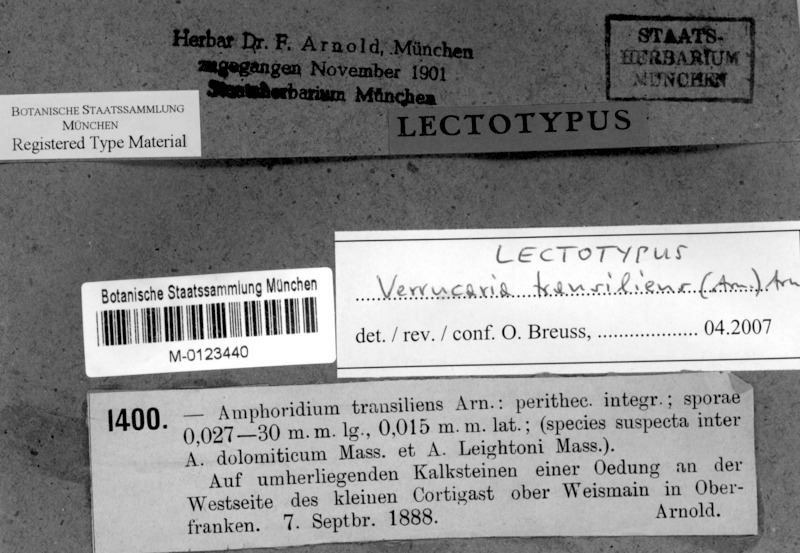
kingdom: Fungi
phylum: Ascomycota
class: Eurotiomycetes
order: Verrucariales
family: Verrucariaceae
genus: Verrucaria
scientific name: Verrucaria transiliens
